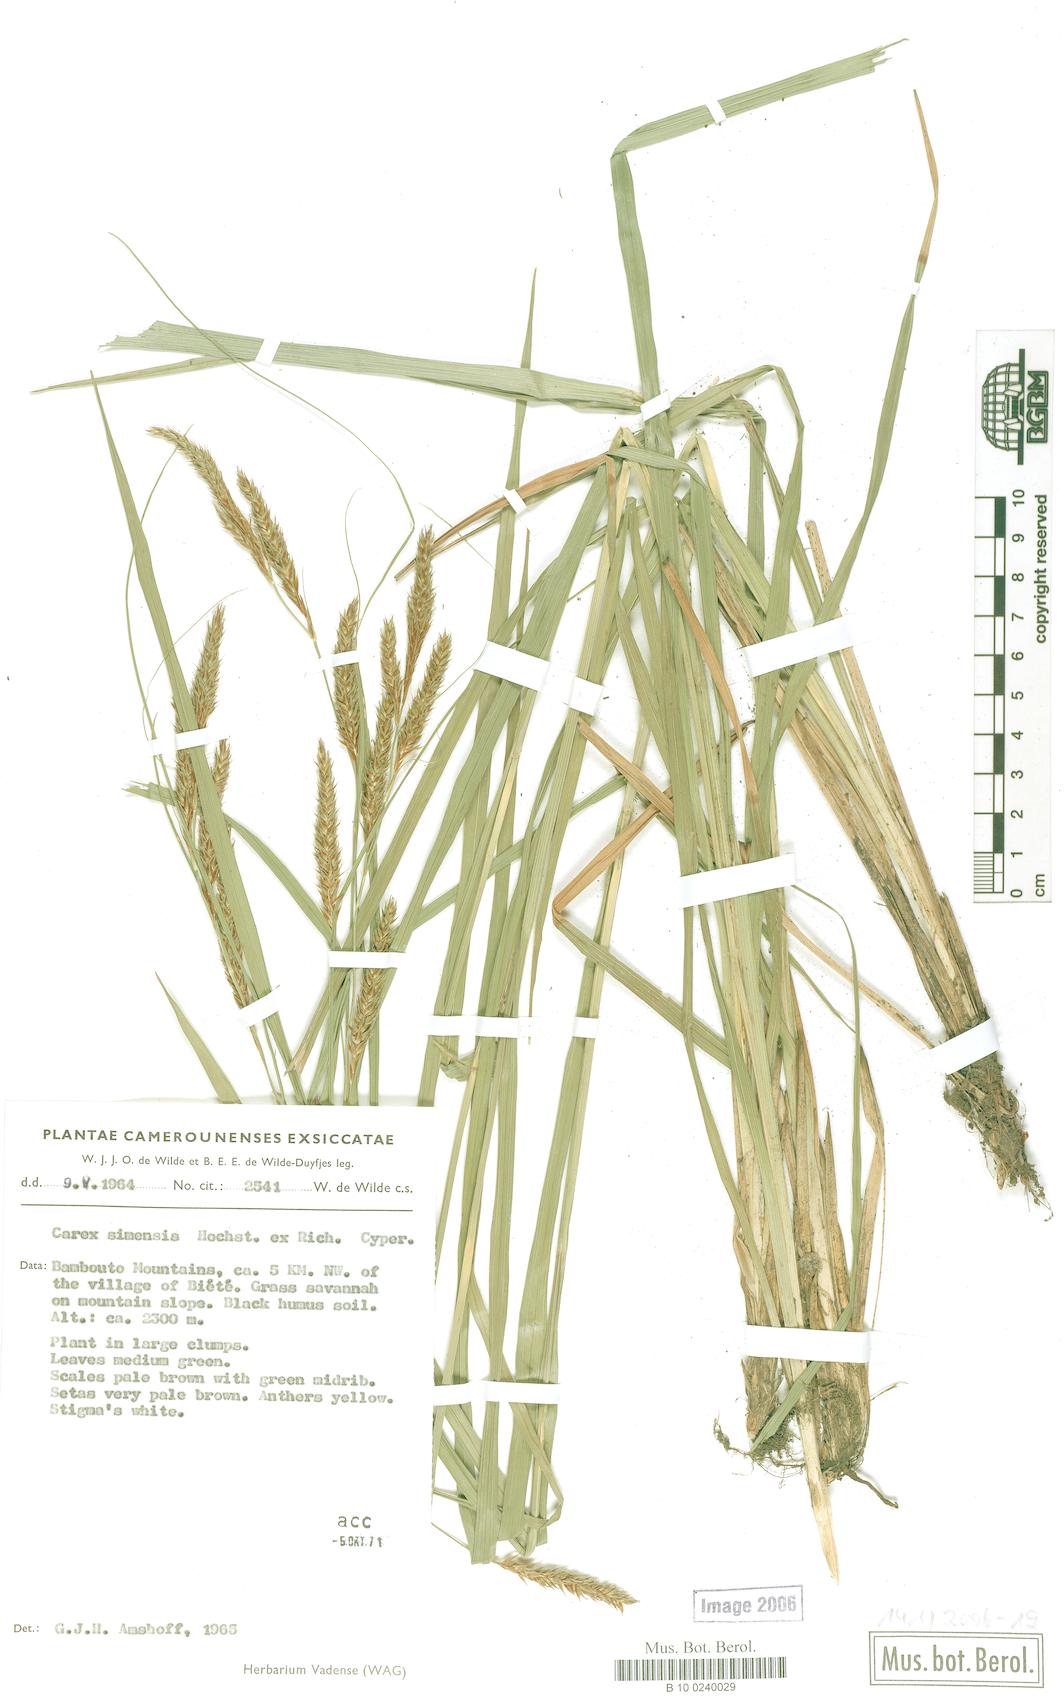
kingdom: Plantae
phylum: Tracheophyta
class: Liliopsida
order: Poales
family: Cyperaceae
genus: Carex
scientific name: Carex petitiana
